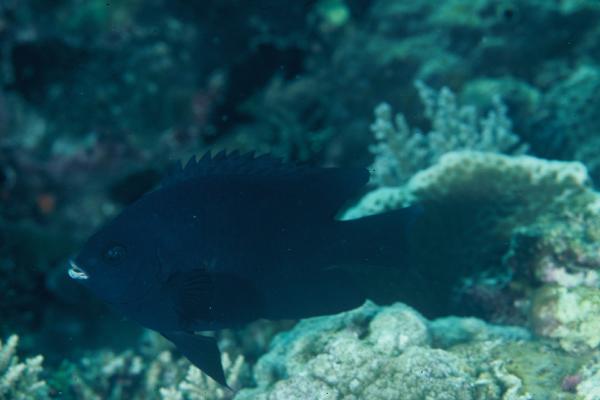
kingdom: Animalia
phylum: Chordata
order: Perciformes
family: Pomacentridae
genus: Neoglyphidodon
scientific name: Neoglyphidodon melas
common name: Black damsel
